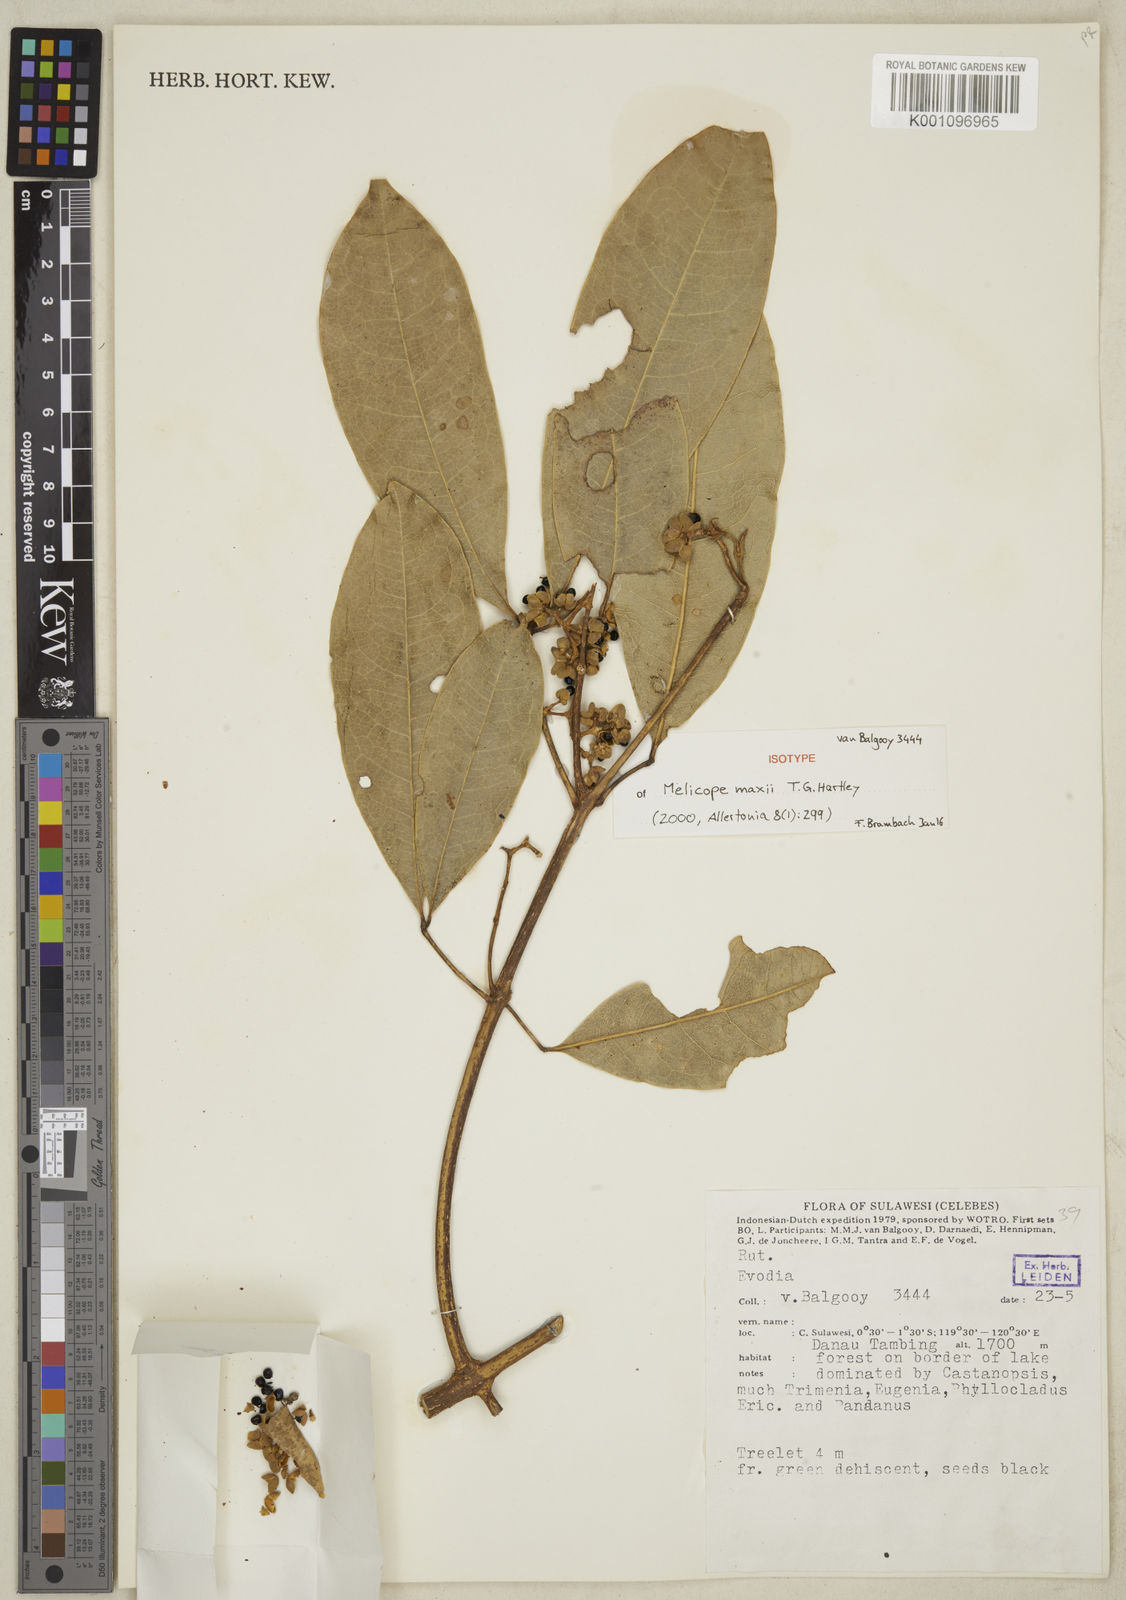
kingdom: Plantae
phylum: Tracheophyta
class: Magnoliopsida
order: Sapindales
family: Rutaceae
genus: Melicope
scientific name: Melicope maxii
